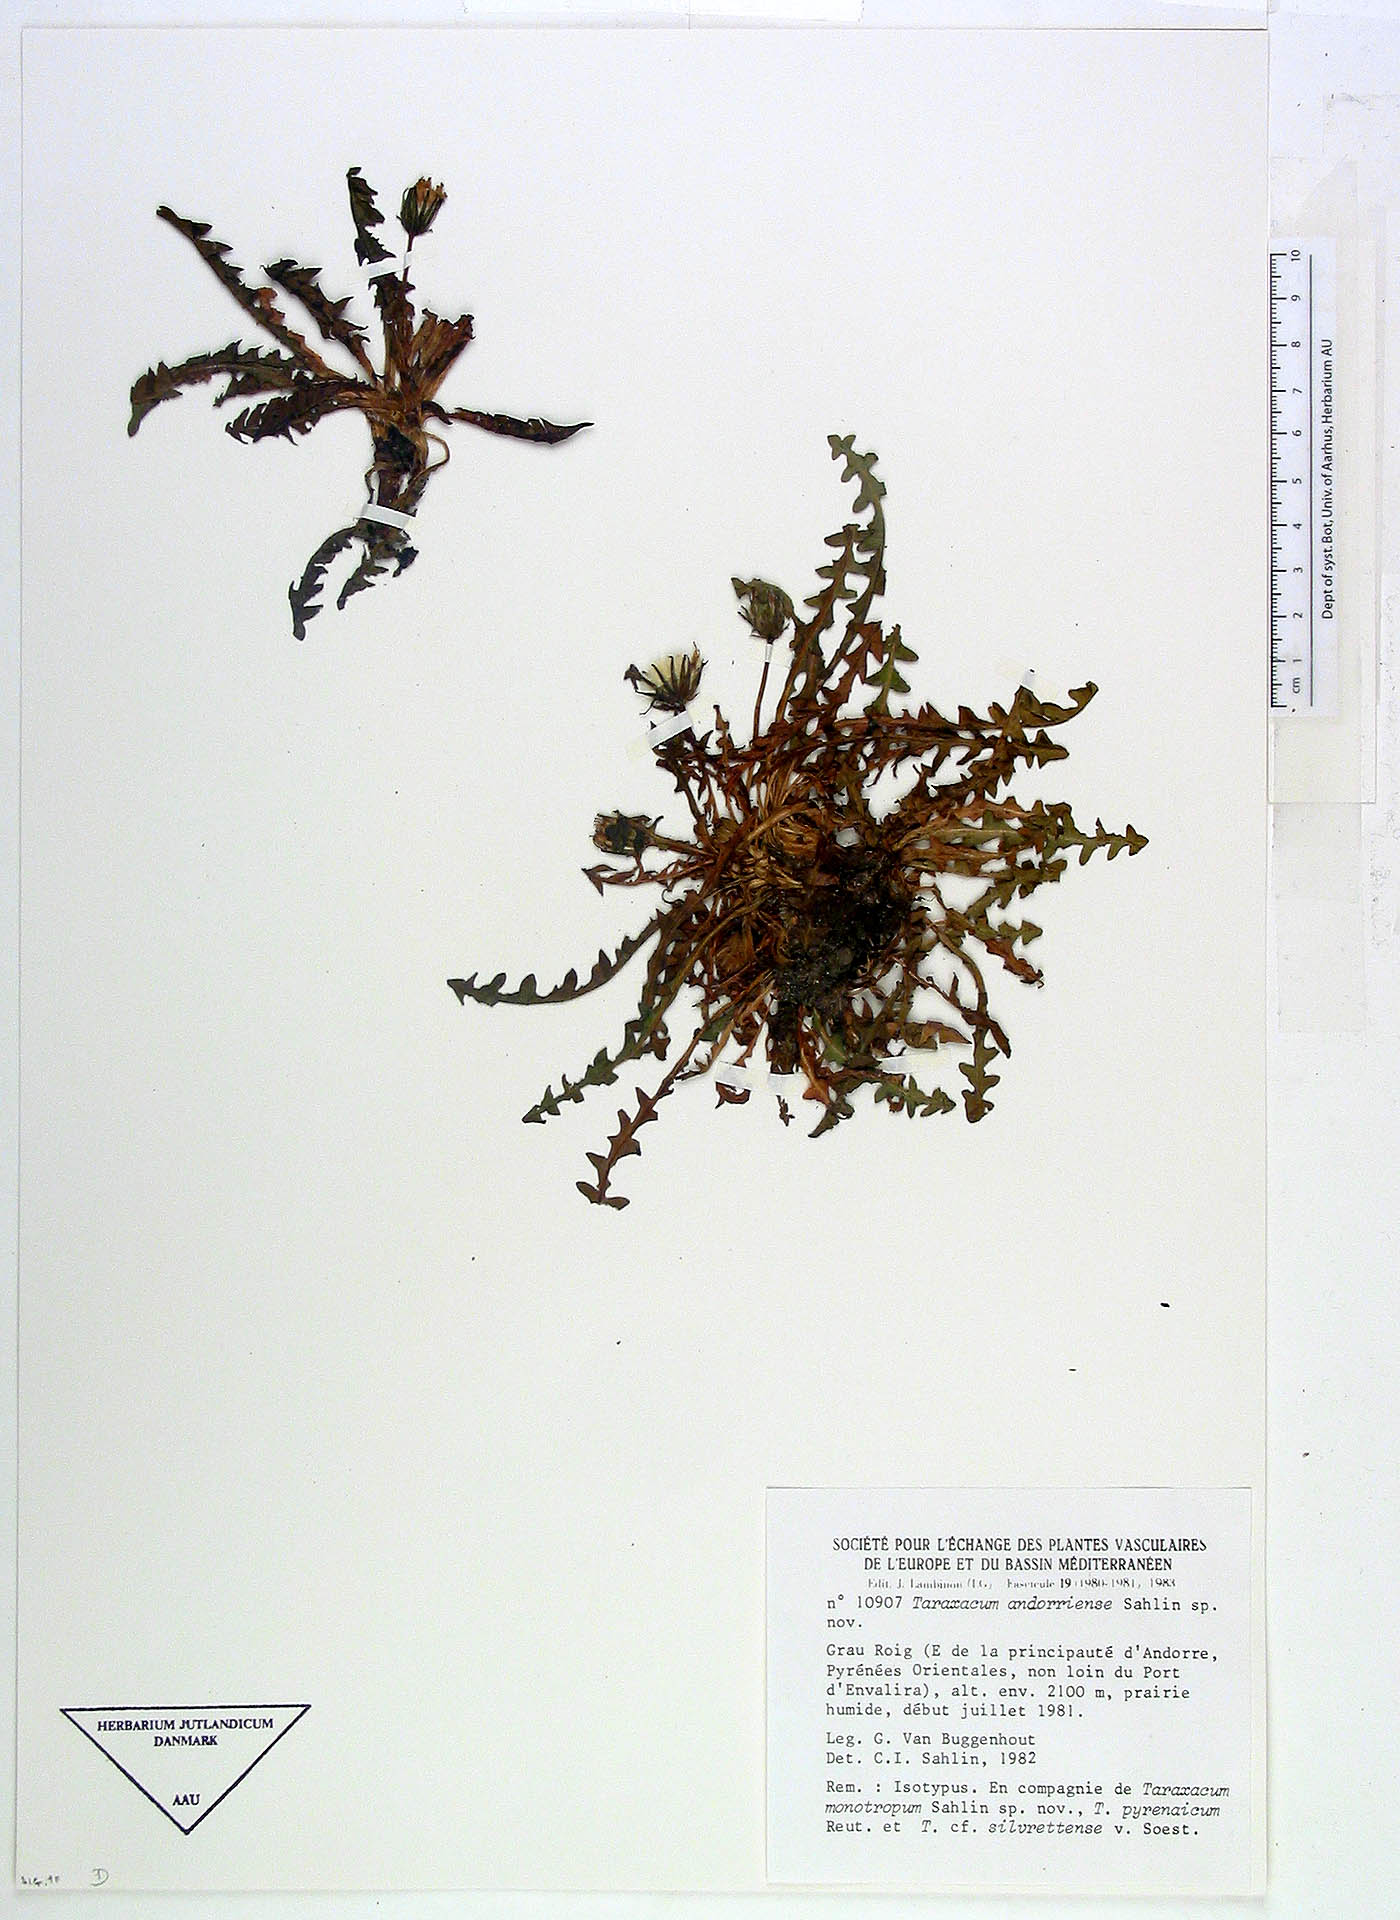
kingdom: Plantae
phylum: Tracheophyta
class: Magnoliopsida
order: Asterales
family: Asteraceae
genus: Taraxacum
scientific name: Taraxacum andorriense
